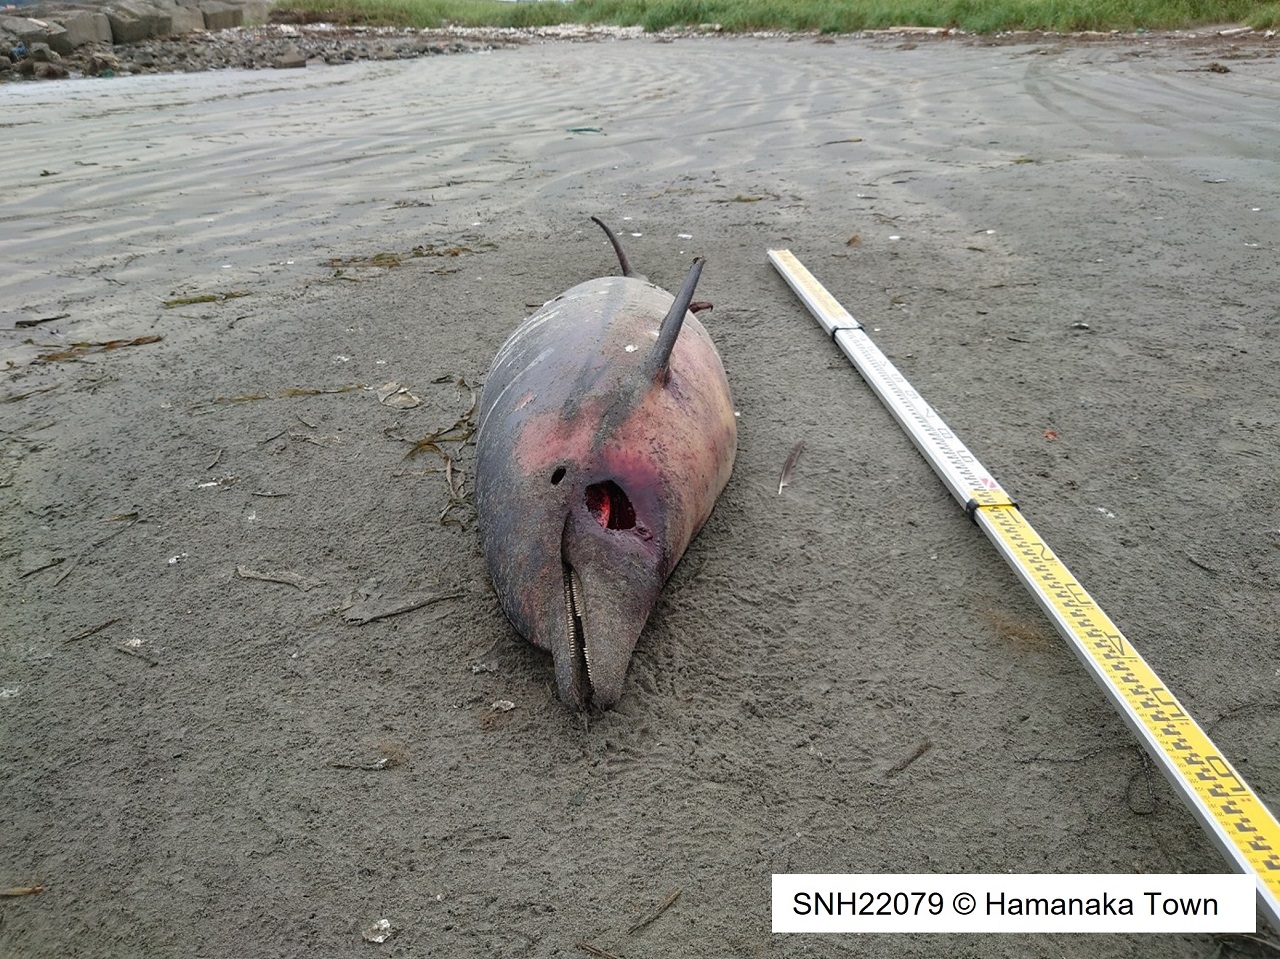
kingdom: Animalia
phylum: Chordata
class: Mammalia
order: Cetacea
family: Delphinidae
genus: Stenella
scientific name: Stenella coeruleoalba
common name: Striped dolphin
